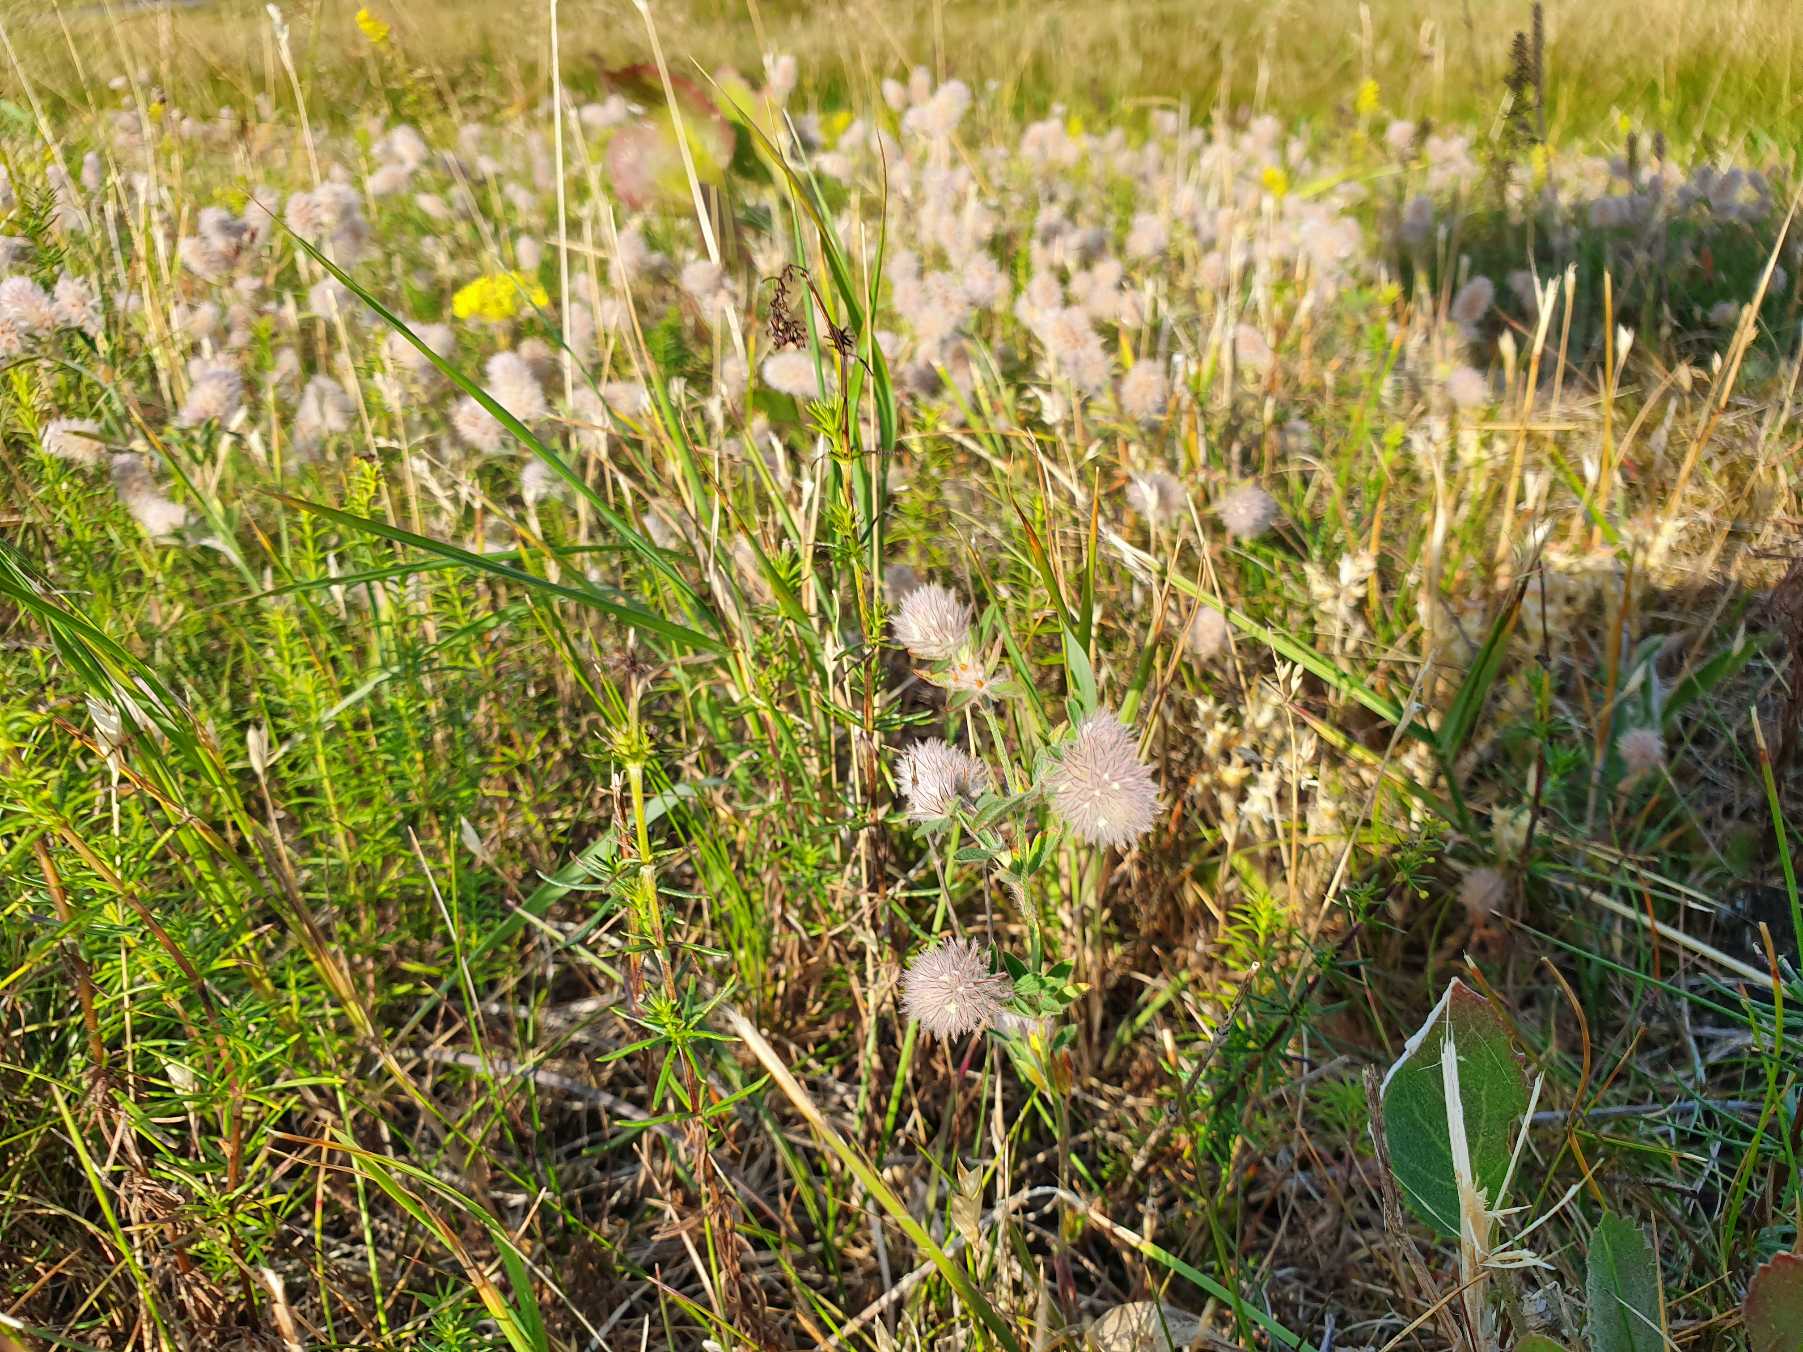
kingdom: Plantae
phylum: Tracheophyta
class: Magnoliopsida
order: Fabales
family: Fabaceae
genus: Trifolium
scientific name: Trifolium arvense
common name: Hare-kløver
